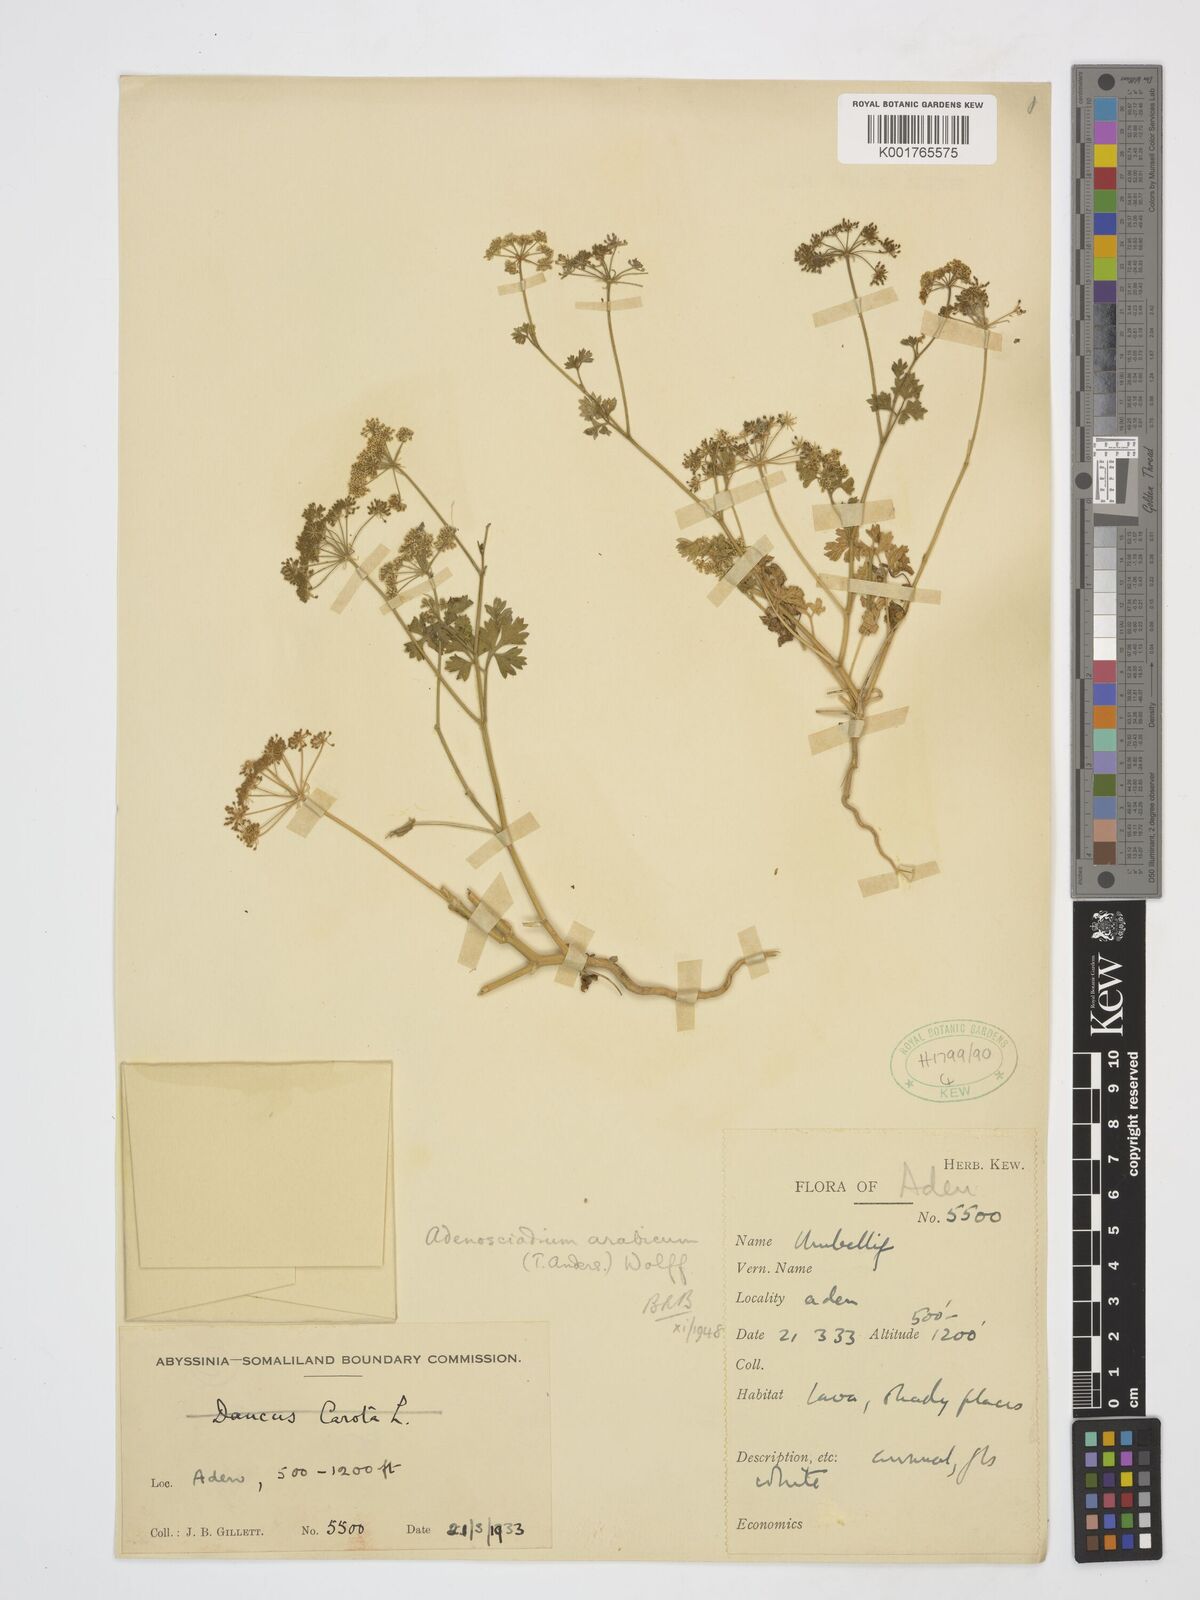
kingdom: Plantae
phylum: Tracheophyta
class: Magnoliopsida
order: Apiales
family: Apiaceae
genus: Adenosciadium
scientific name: Adenosciadium arabicum
